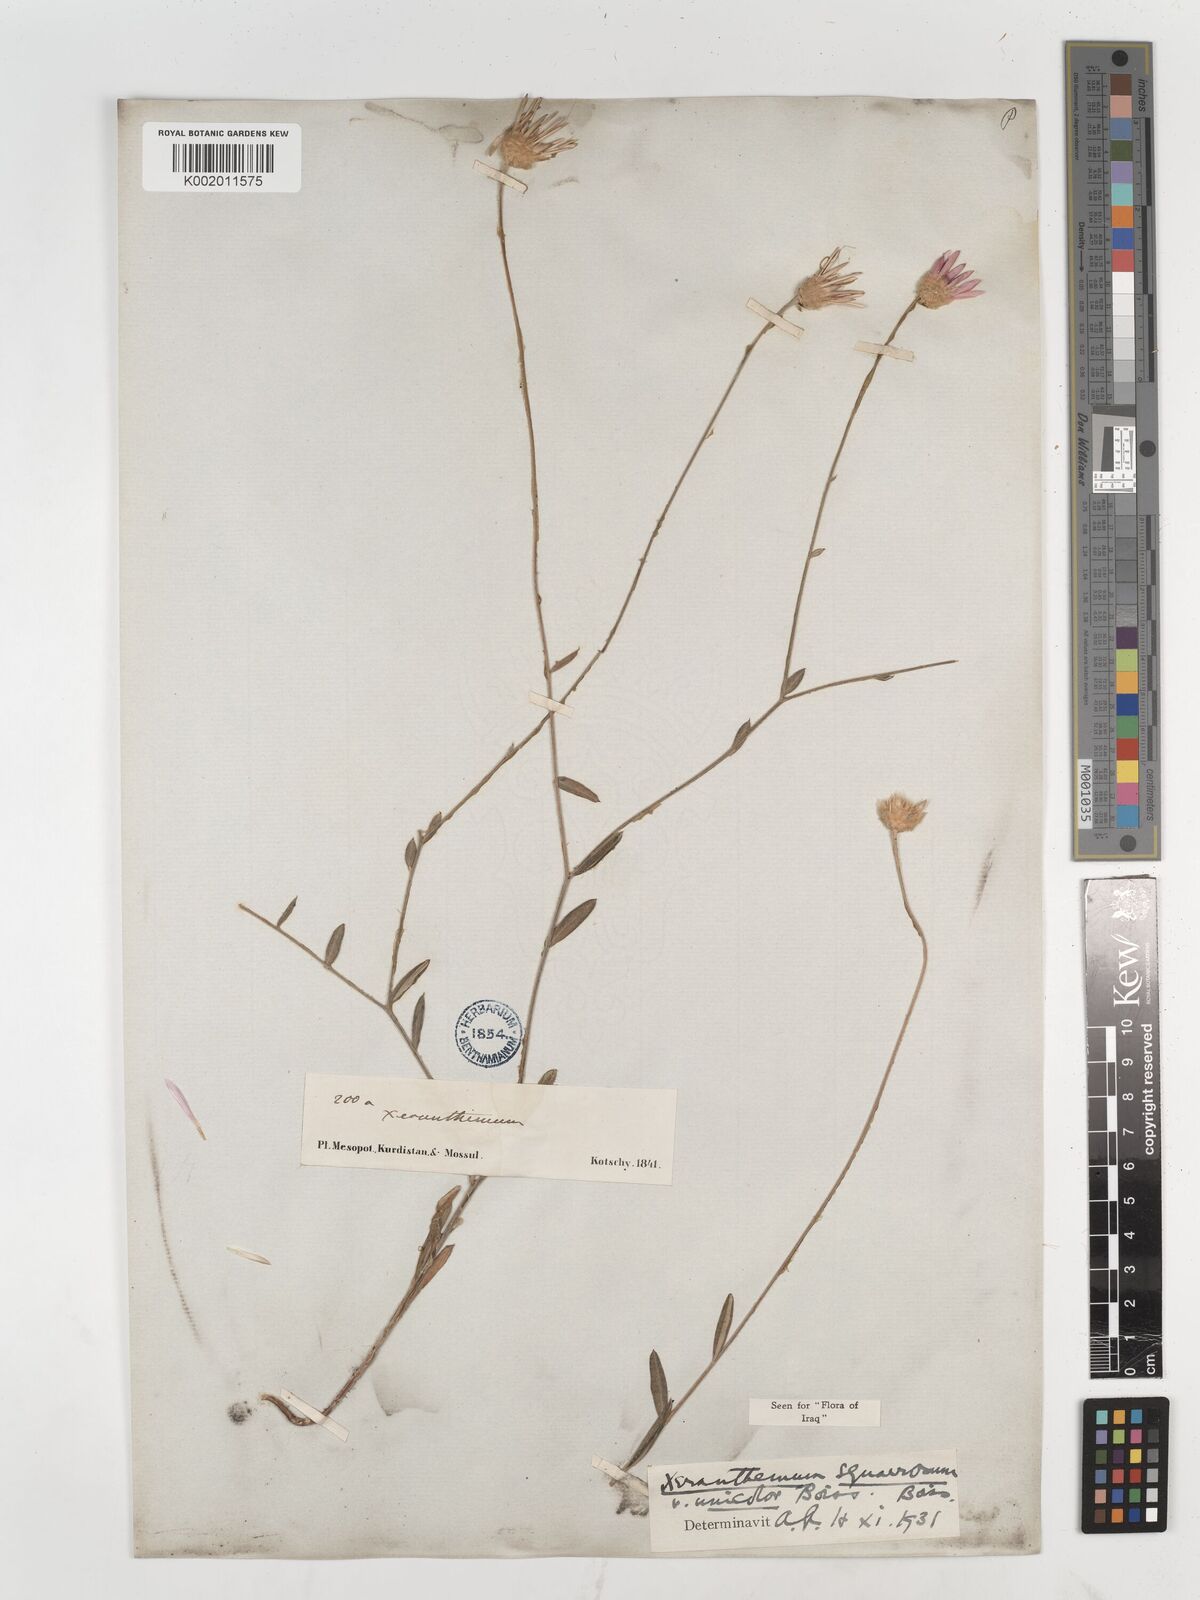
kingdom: Plantae
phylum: Tracheophyta
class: Magnoliopsida
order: Asterales
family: Asteraceae
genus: Xeranthemum
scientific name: Xeranthemum annuum
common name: Immortelle
